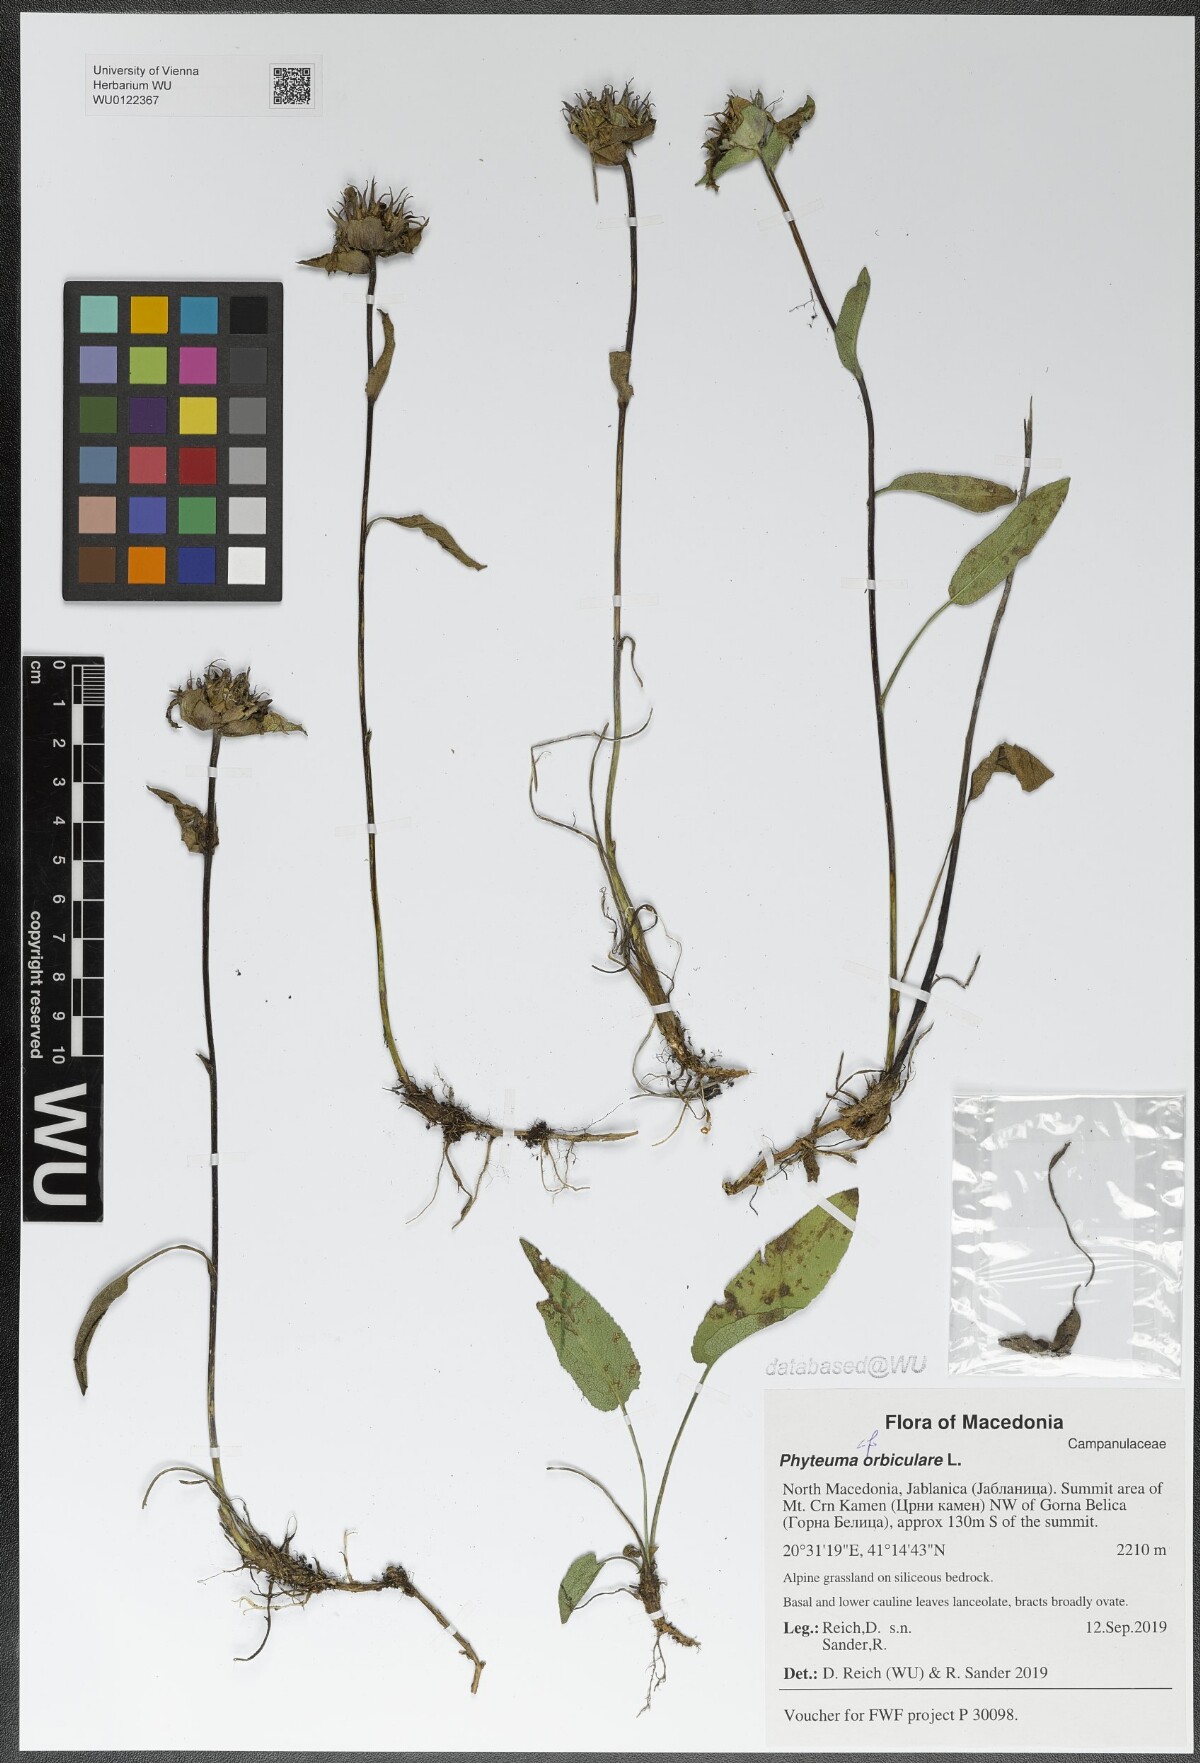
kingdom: Plantae
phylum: Tracheophyta
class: Magnoliopsida
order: Asterales
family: Campanulaceae
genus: Phyteuma
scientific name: Phyteuma orbiculare
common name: Round-headed rampion
